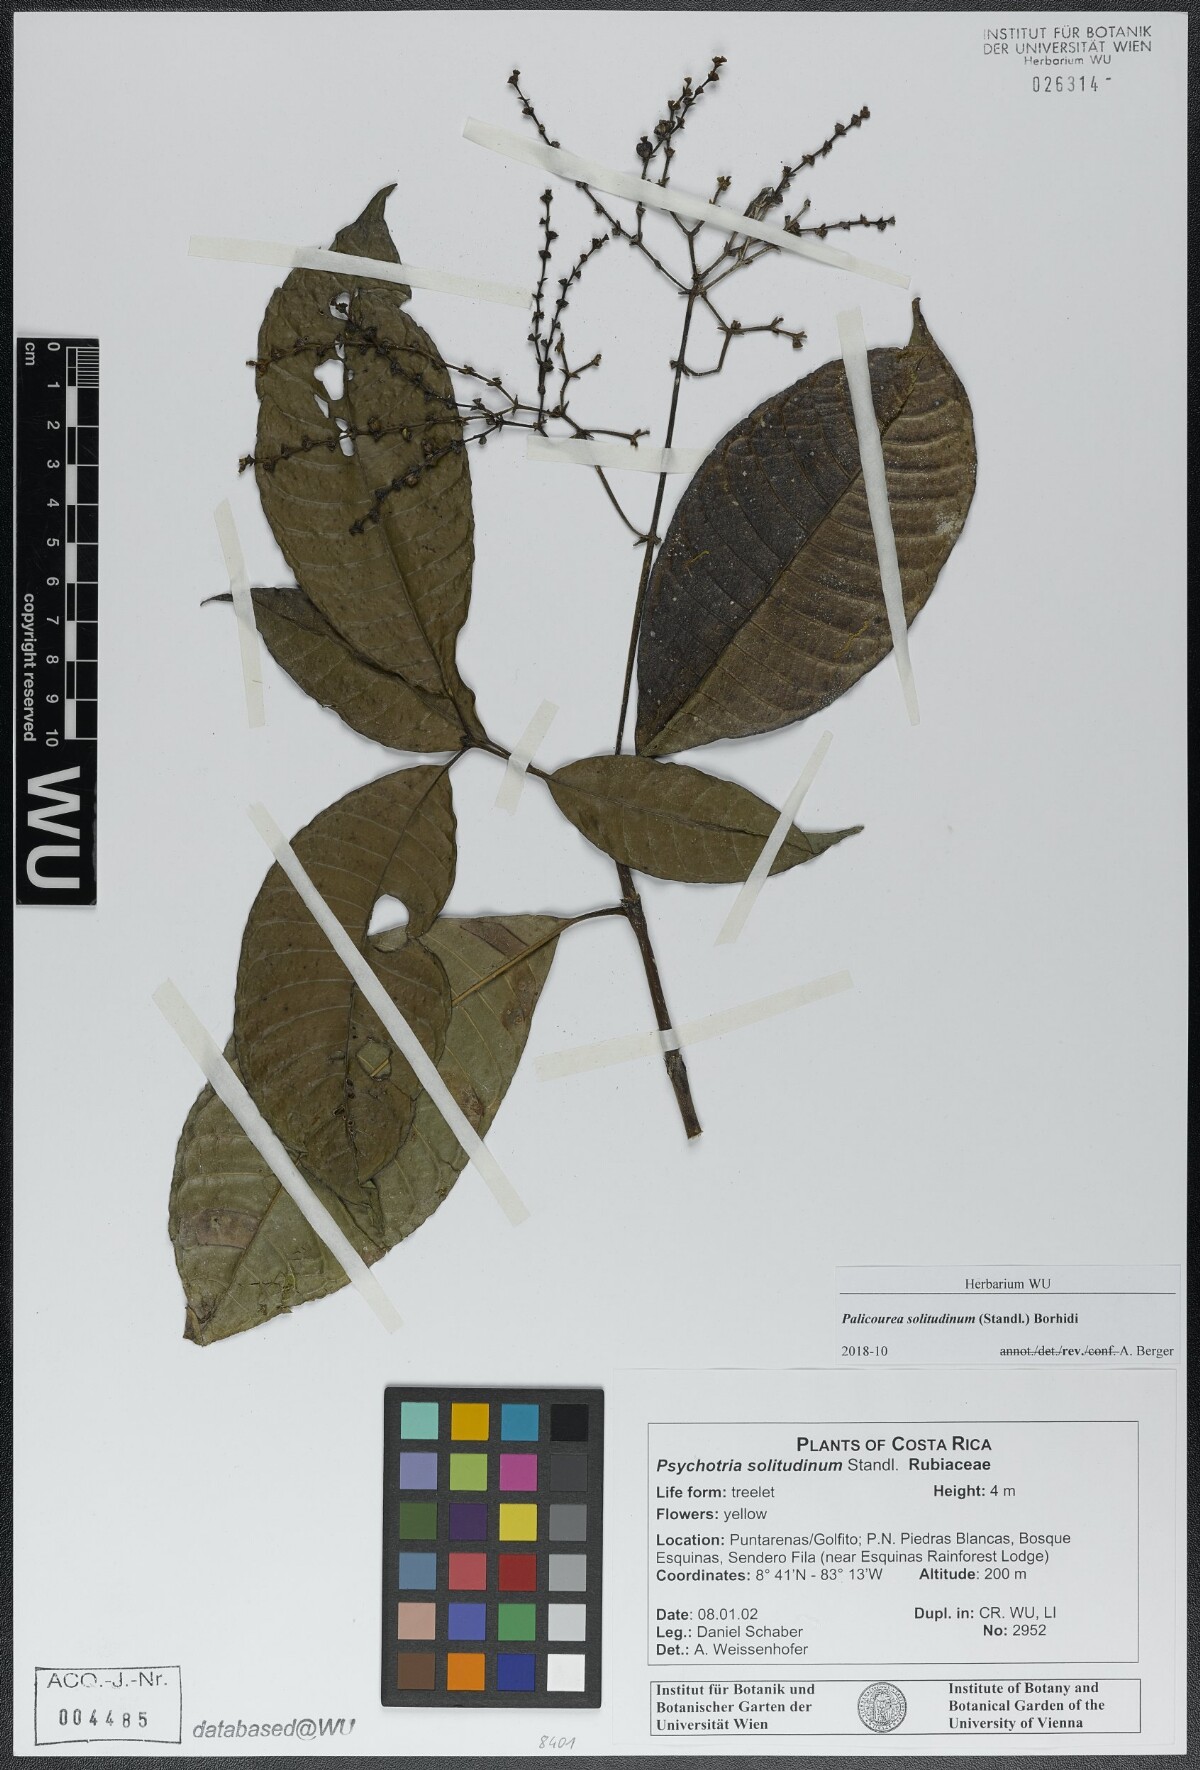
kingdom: Plantae
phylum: Tracheophyta
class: Magnoliopsida
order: Gentianales
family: Rubiaceae
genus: Palicourea
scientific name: Palicourea solitudinum
